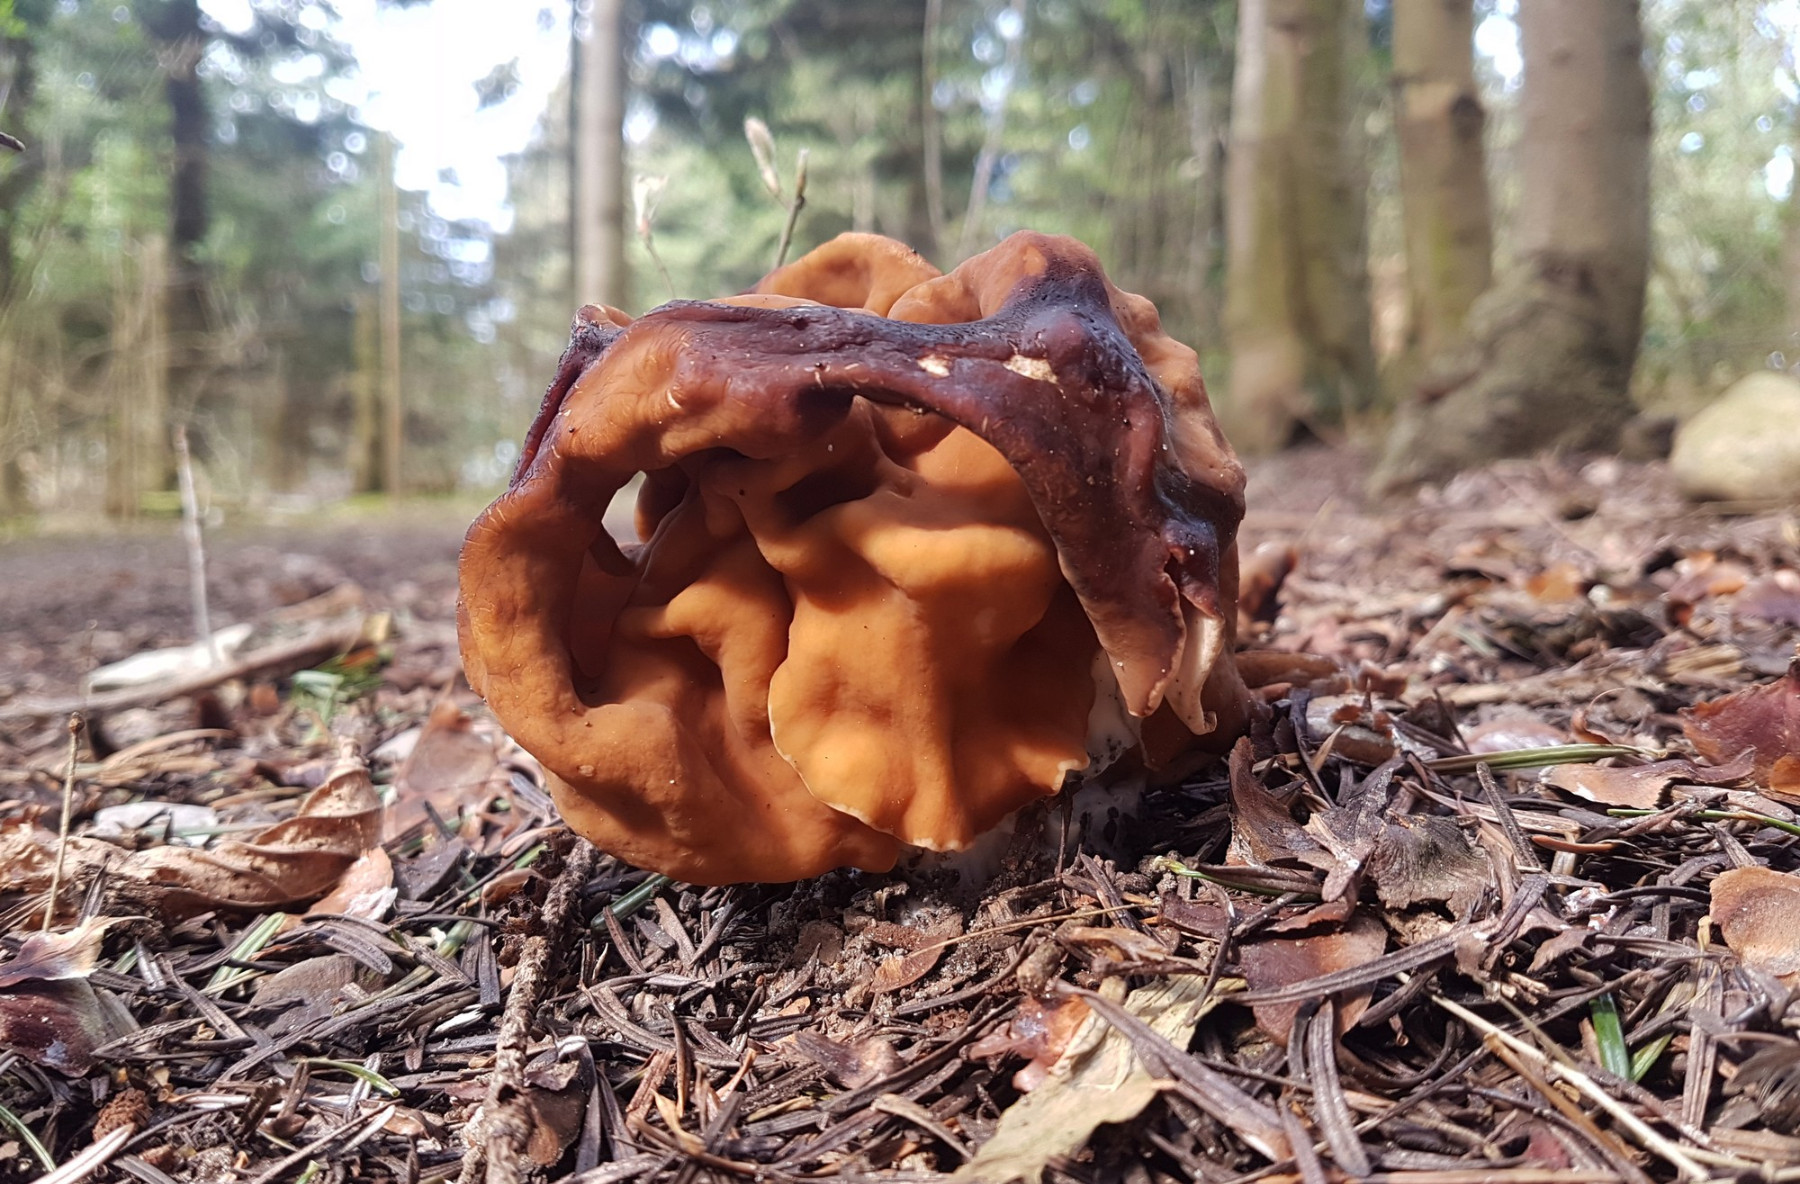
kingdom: Fungi
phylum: Ascomycota
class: Pezizomycetes
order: Pezizales
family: Discinaceae
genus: Gyromitra
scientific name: Gyromitra gigas
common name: kæmpe-stenmorkel
